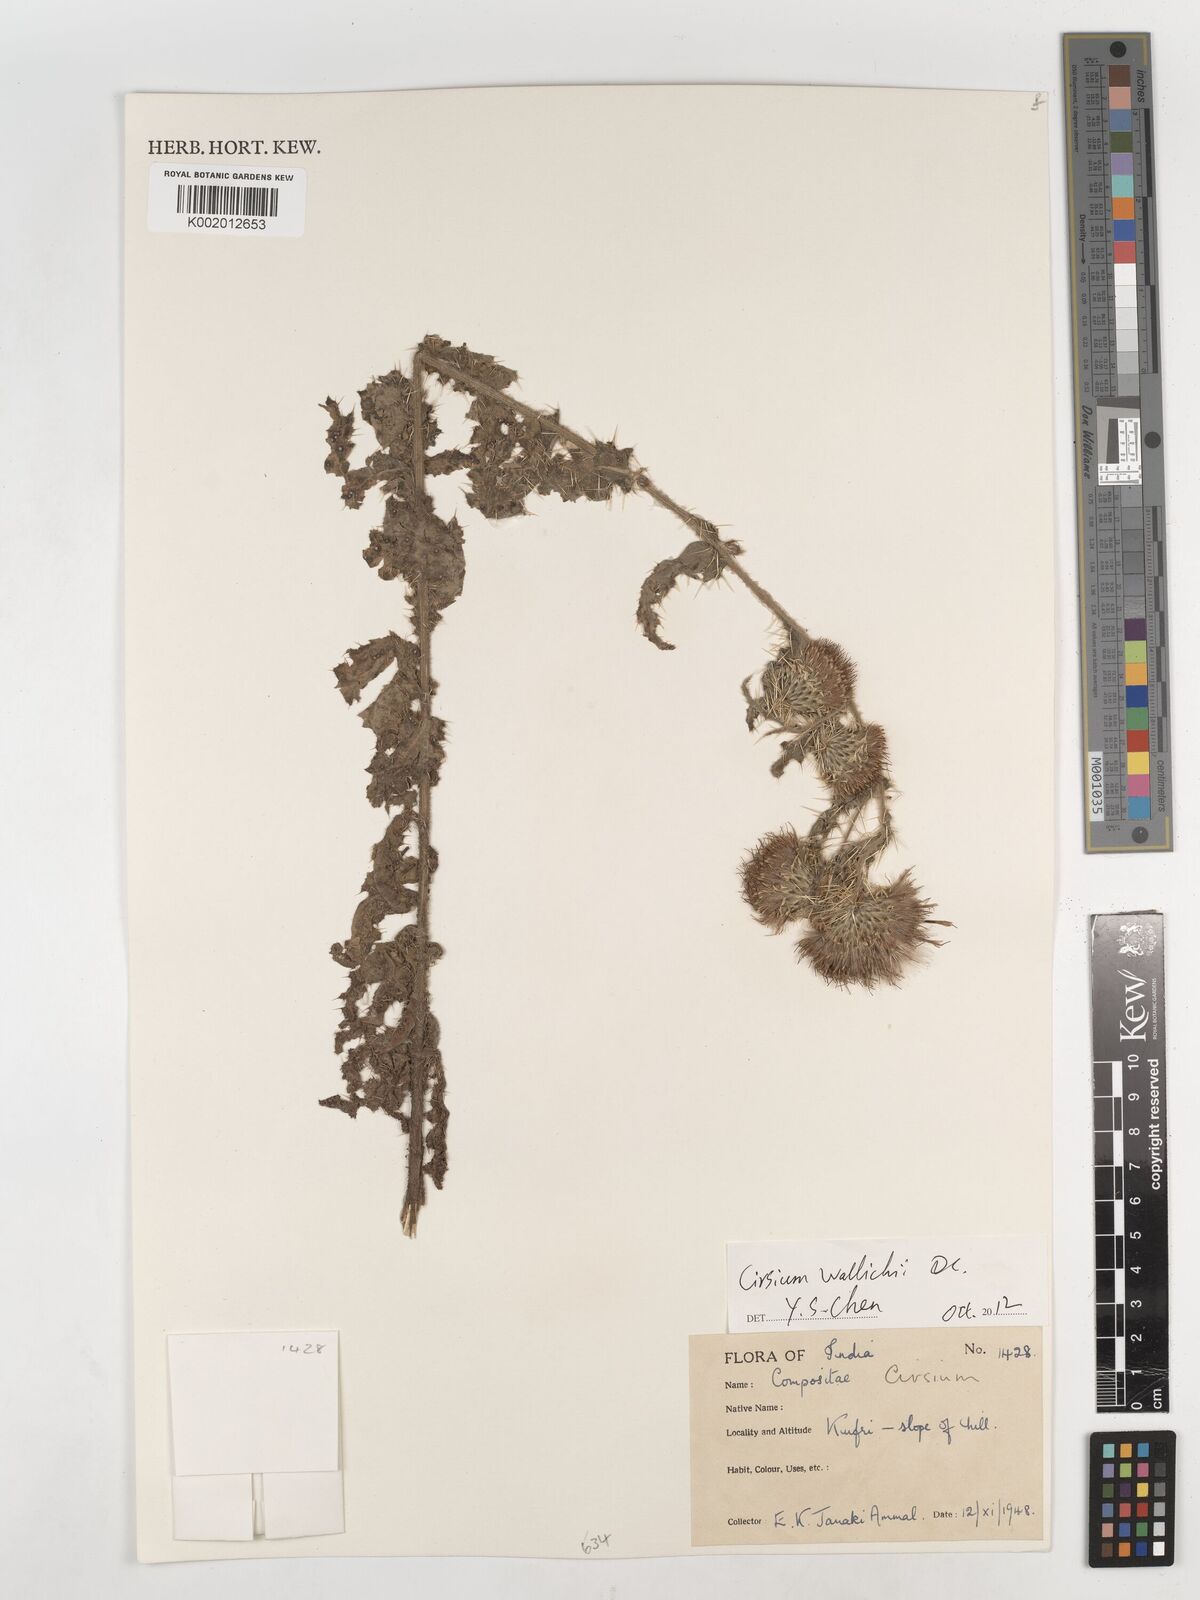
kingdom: Plantae
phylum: Tracheophyta
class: Magnoliopsida
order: Asterales
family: Asteraceae
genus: Cirsium
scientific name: Cirsium
